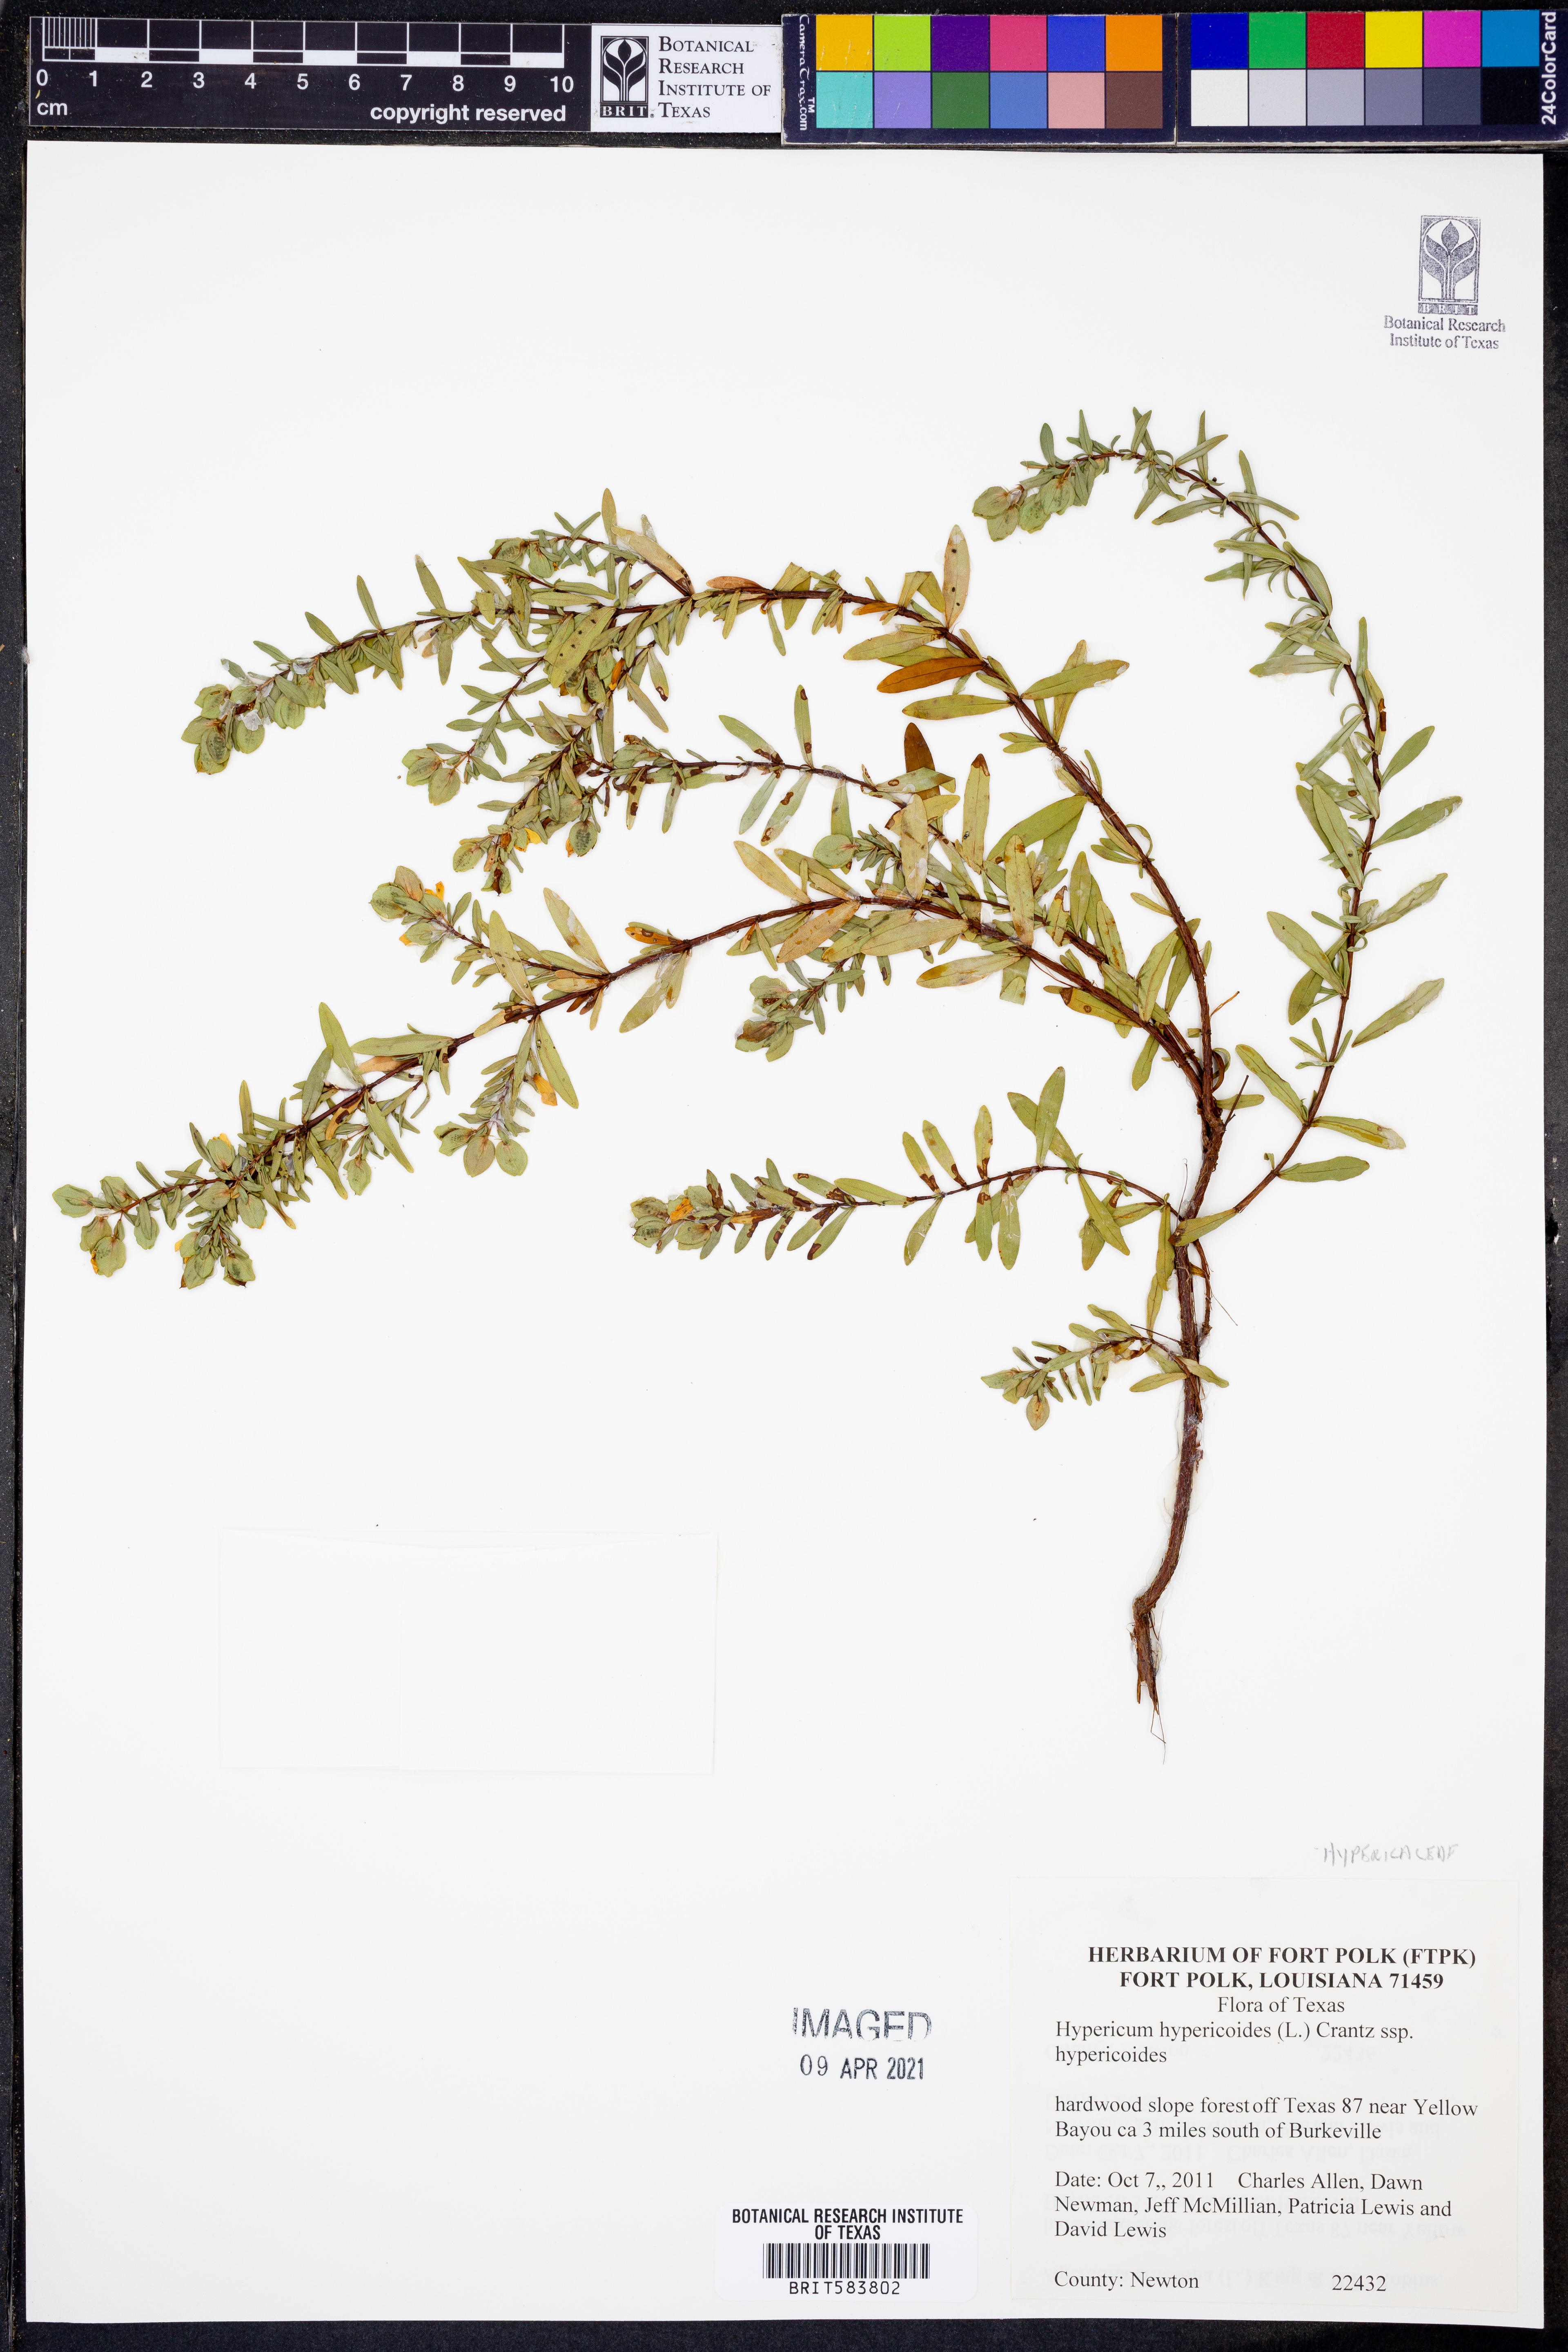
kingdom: Plantae
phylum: Tracheophyta
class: Magnoliopsida
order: Malpighiales
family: Hypericaceae
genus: Hypericum
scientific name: Hypericum hypericoides
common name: St. andrew's cross
